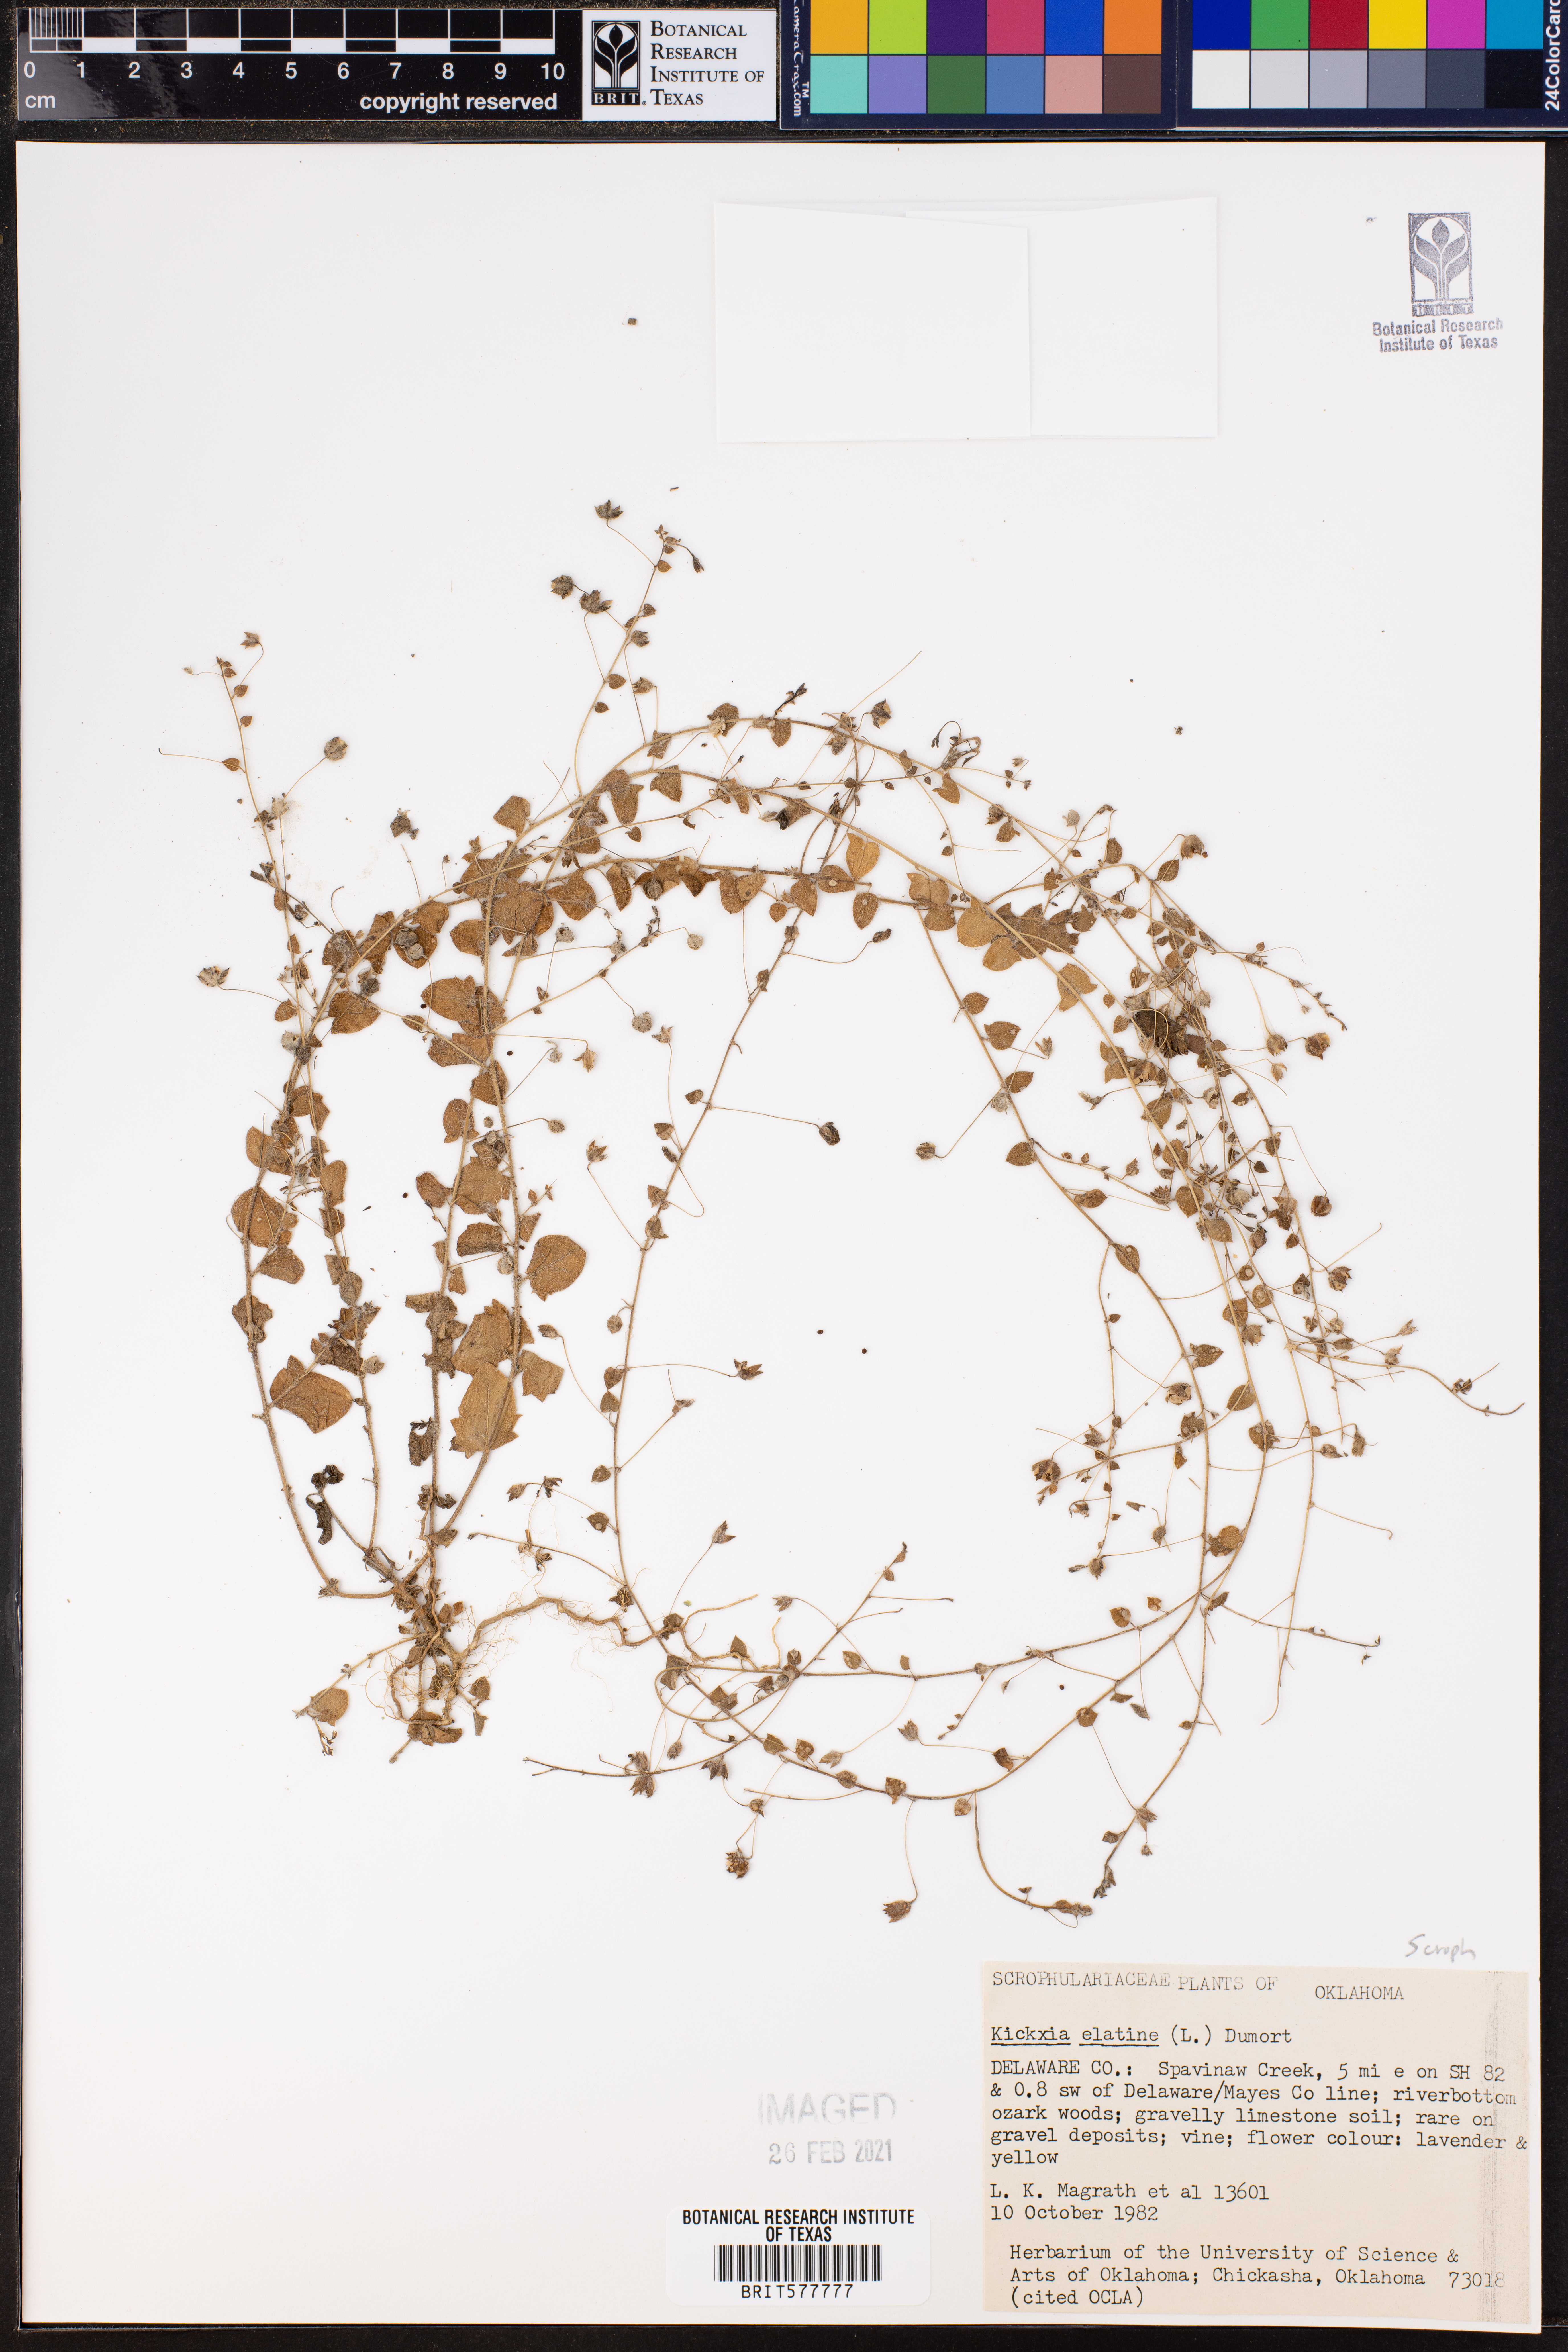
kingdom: Plantae
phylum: Tracheophyta
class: Magnoliopsida
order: Lamiales
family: Plantaginaceae
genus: Kickxia
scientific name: Kickxia elatine
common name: Sharp-leaved fluellen
